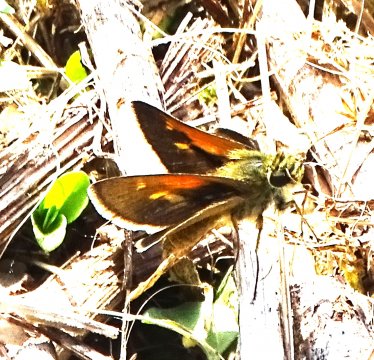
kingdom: Animalia
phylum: Arthropoda
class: Insecta
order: Lepidoptera
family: Hesperiidae
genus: Polites
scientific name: Polites themistocles
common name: Tawny-edged Skipper
